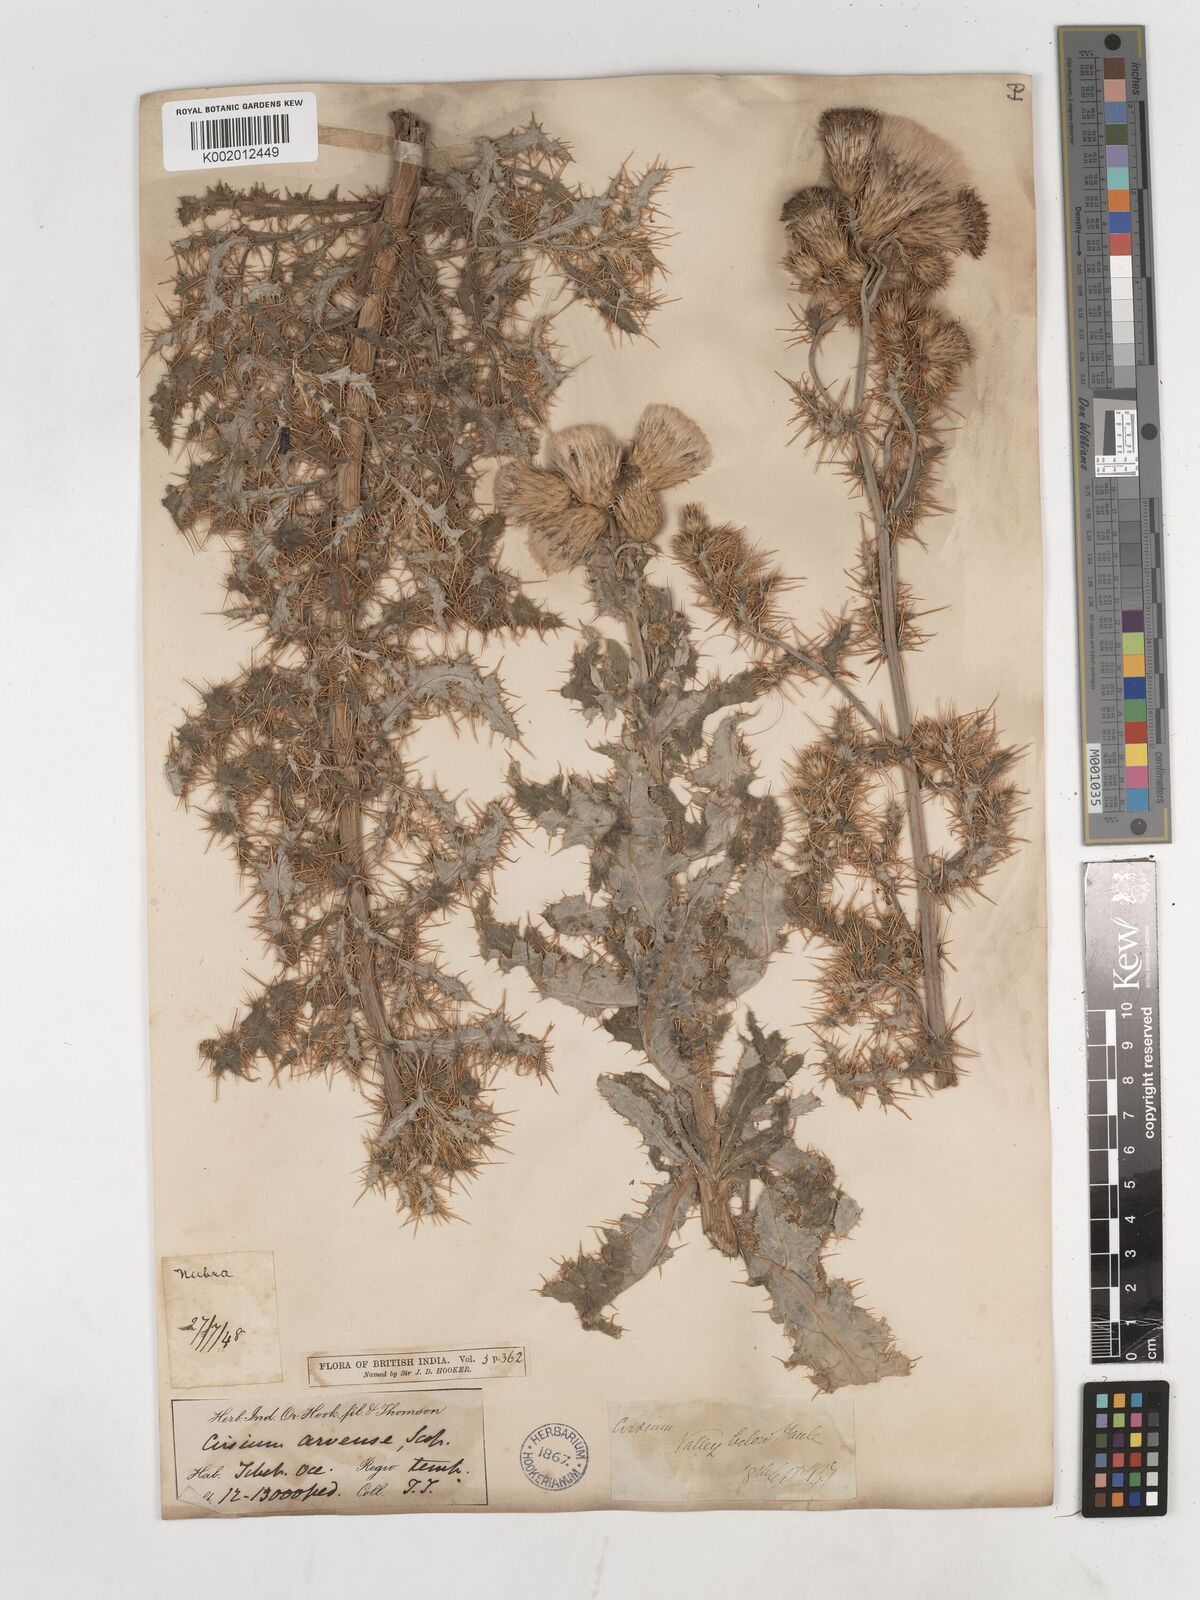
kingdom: Plantae
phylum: Tracheophyta
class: Magnoliopsida
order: Asterales
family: Asteraceae
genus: Cirsium
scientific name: Cirsium arvense
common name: Creeping thistle
